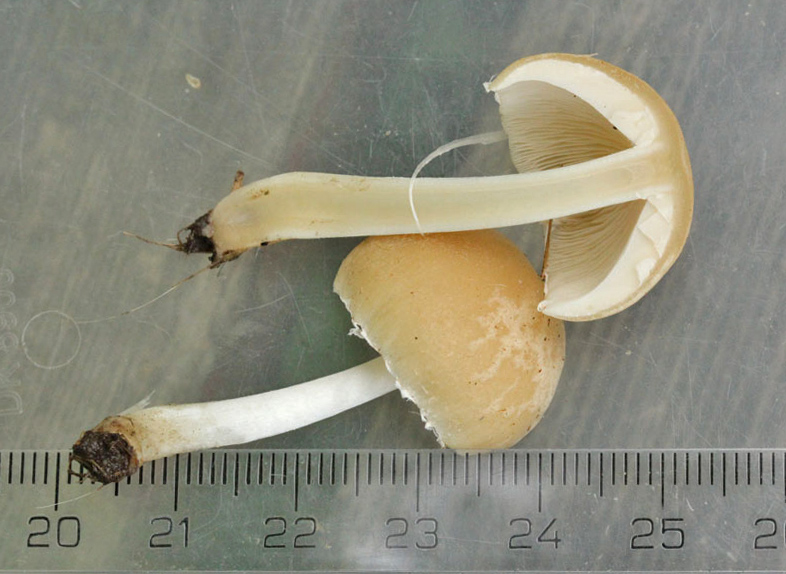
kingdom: Fungi
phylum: Basidiomycota
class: Agaricomycetes
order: Agaricales
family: Psathyrellaceae
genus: Candolleomyces
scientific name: Candolleomyces candolleanus
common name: Candolles mørkhat
